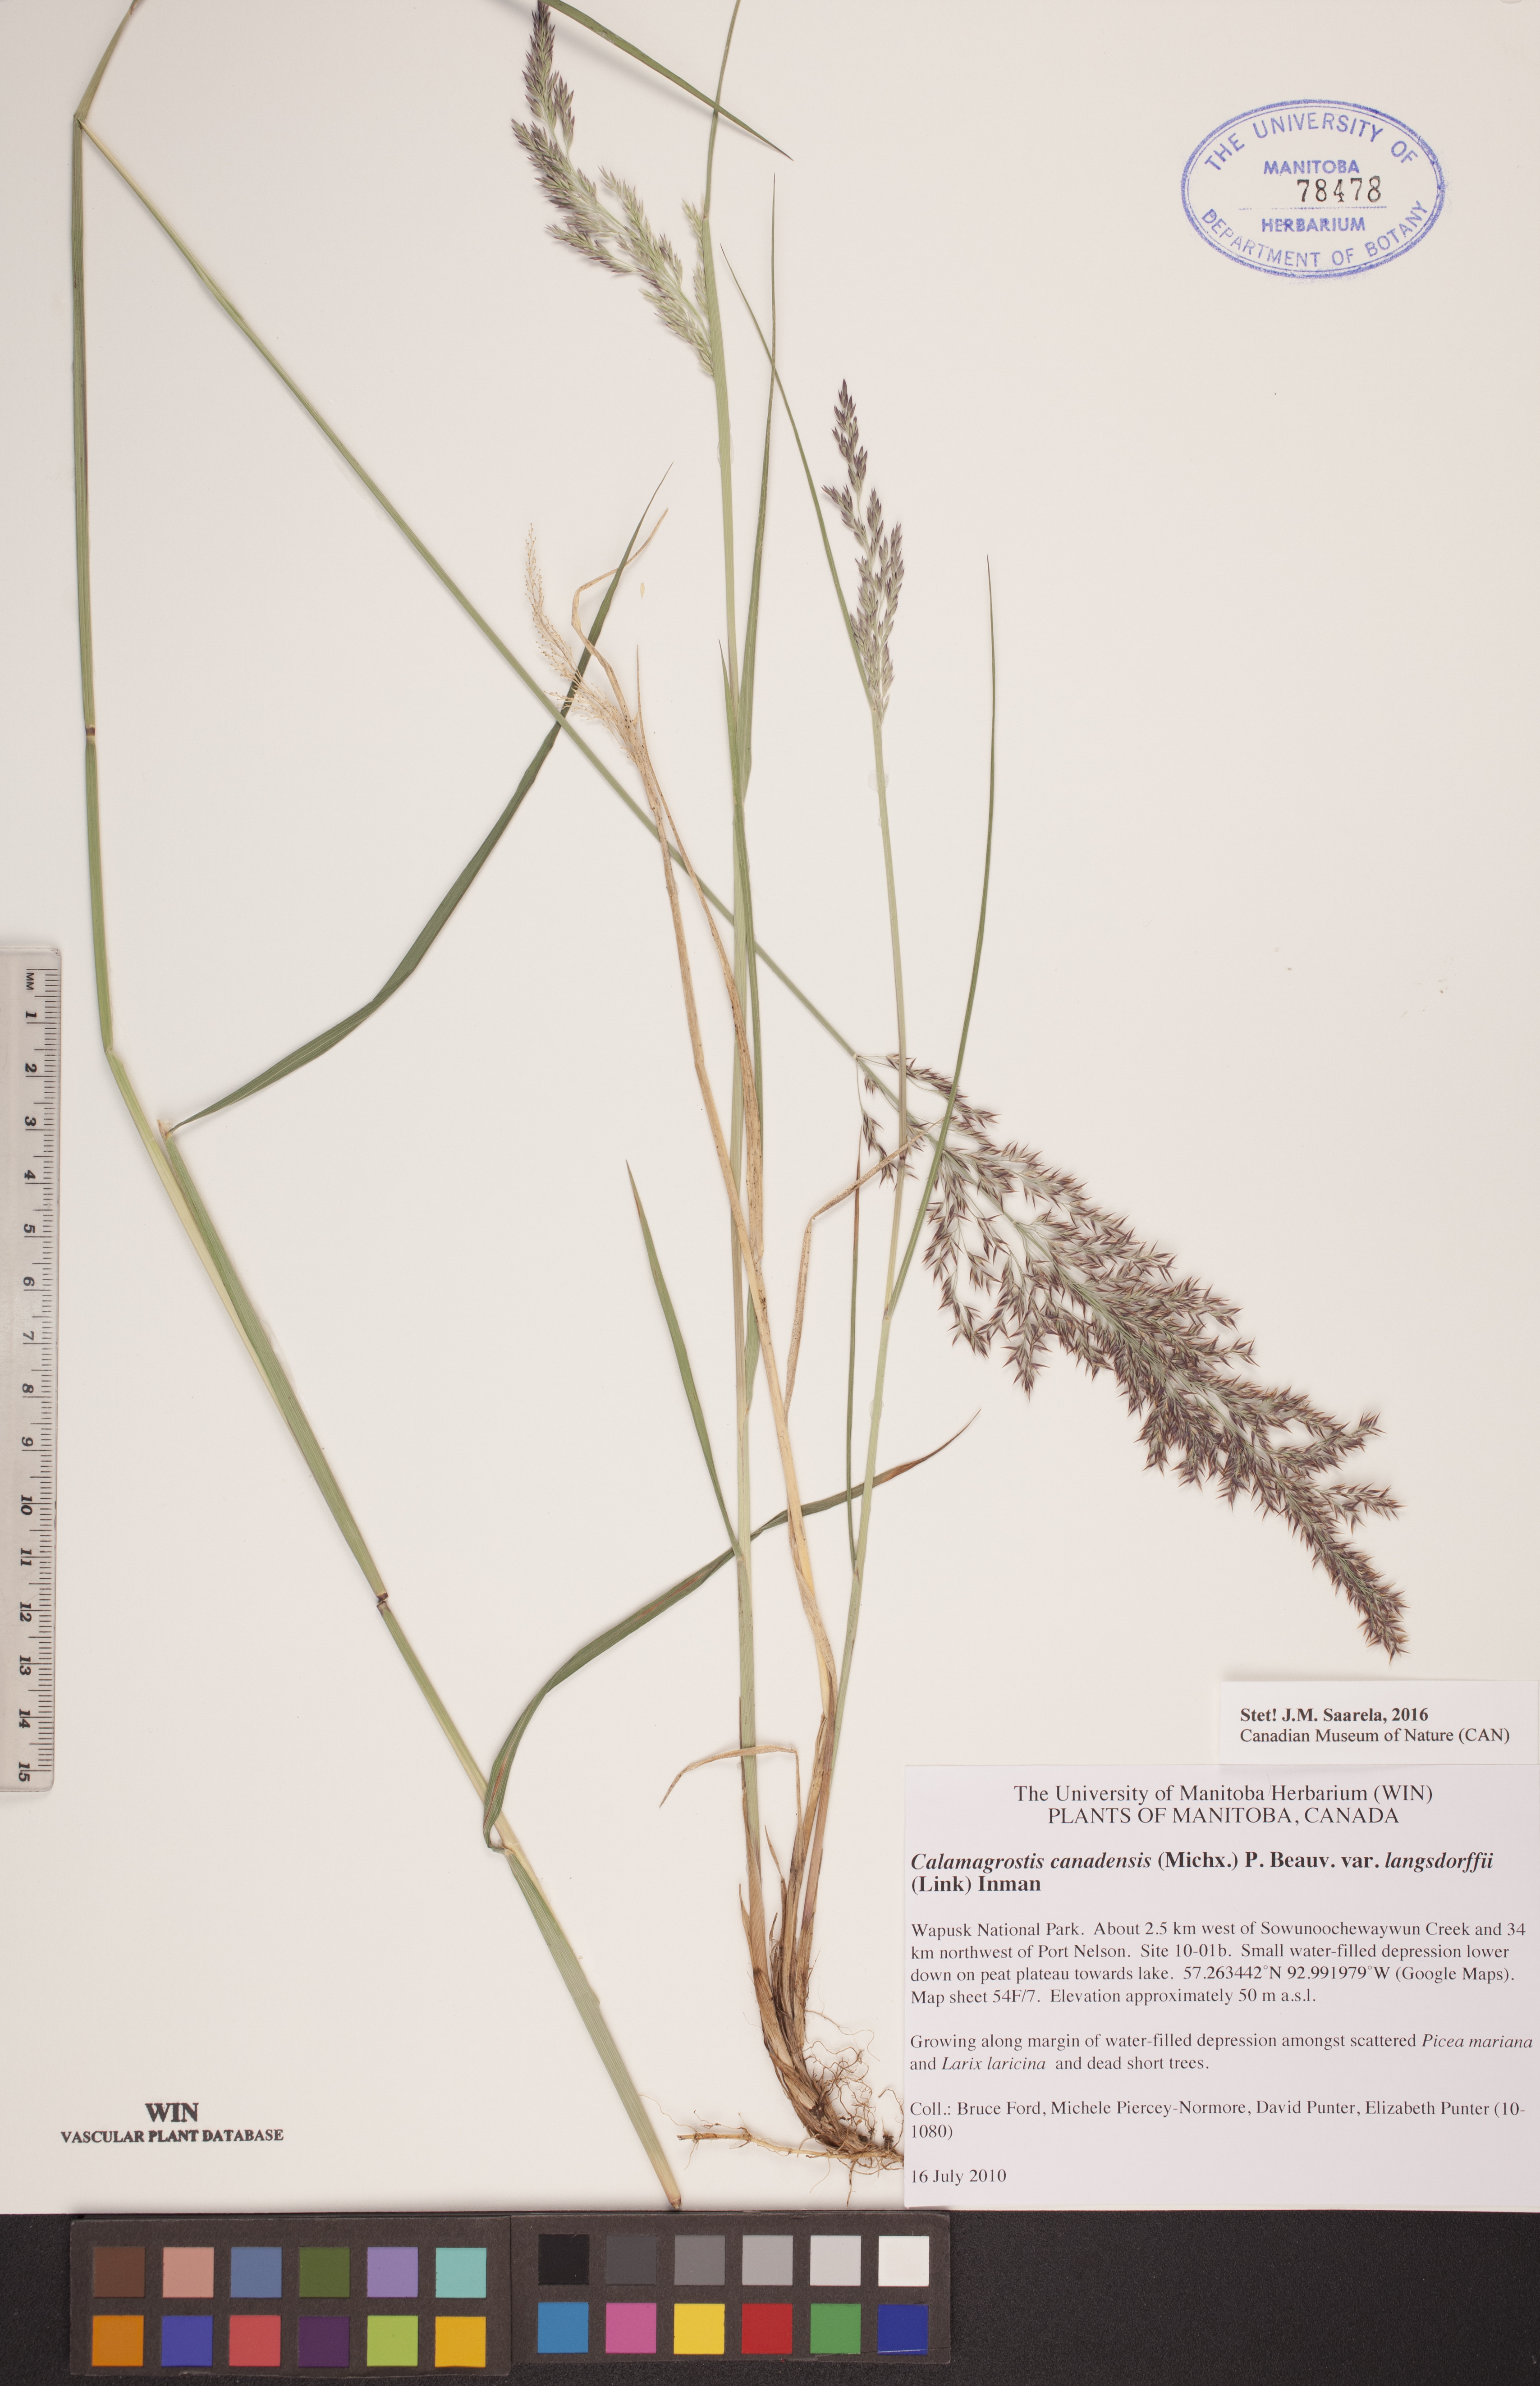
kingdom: Plantae
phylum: Tracheophyta
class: Liliopsida
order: Poales
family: Poaceae
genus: Calamagrostis
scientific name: Calamagrostis purpurea
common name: Scandinavian small-reed
